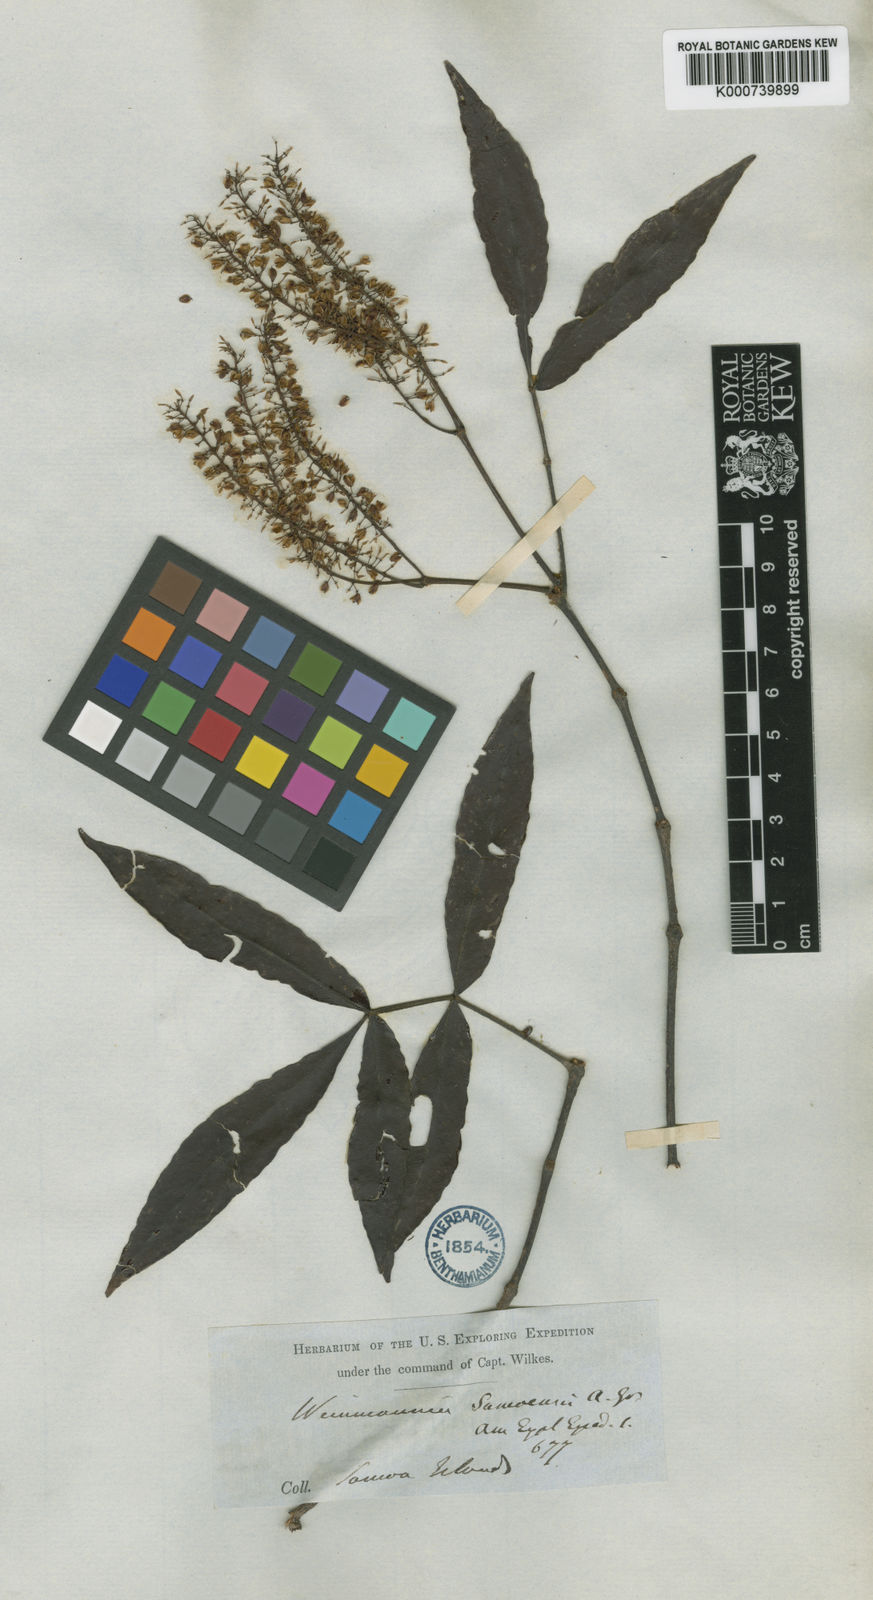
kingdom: Plantae
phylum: Tracheophyta
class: Magnoliopsida
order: Oxalidales
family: Cunoniaceae
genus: Pterophylla
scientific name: Pterophylla samoensis
